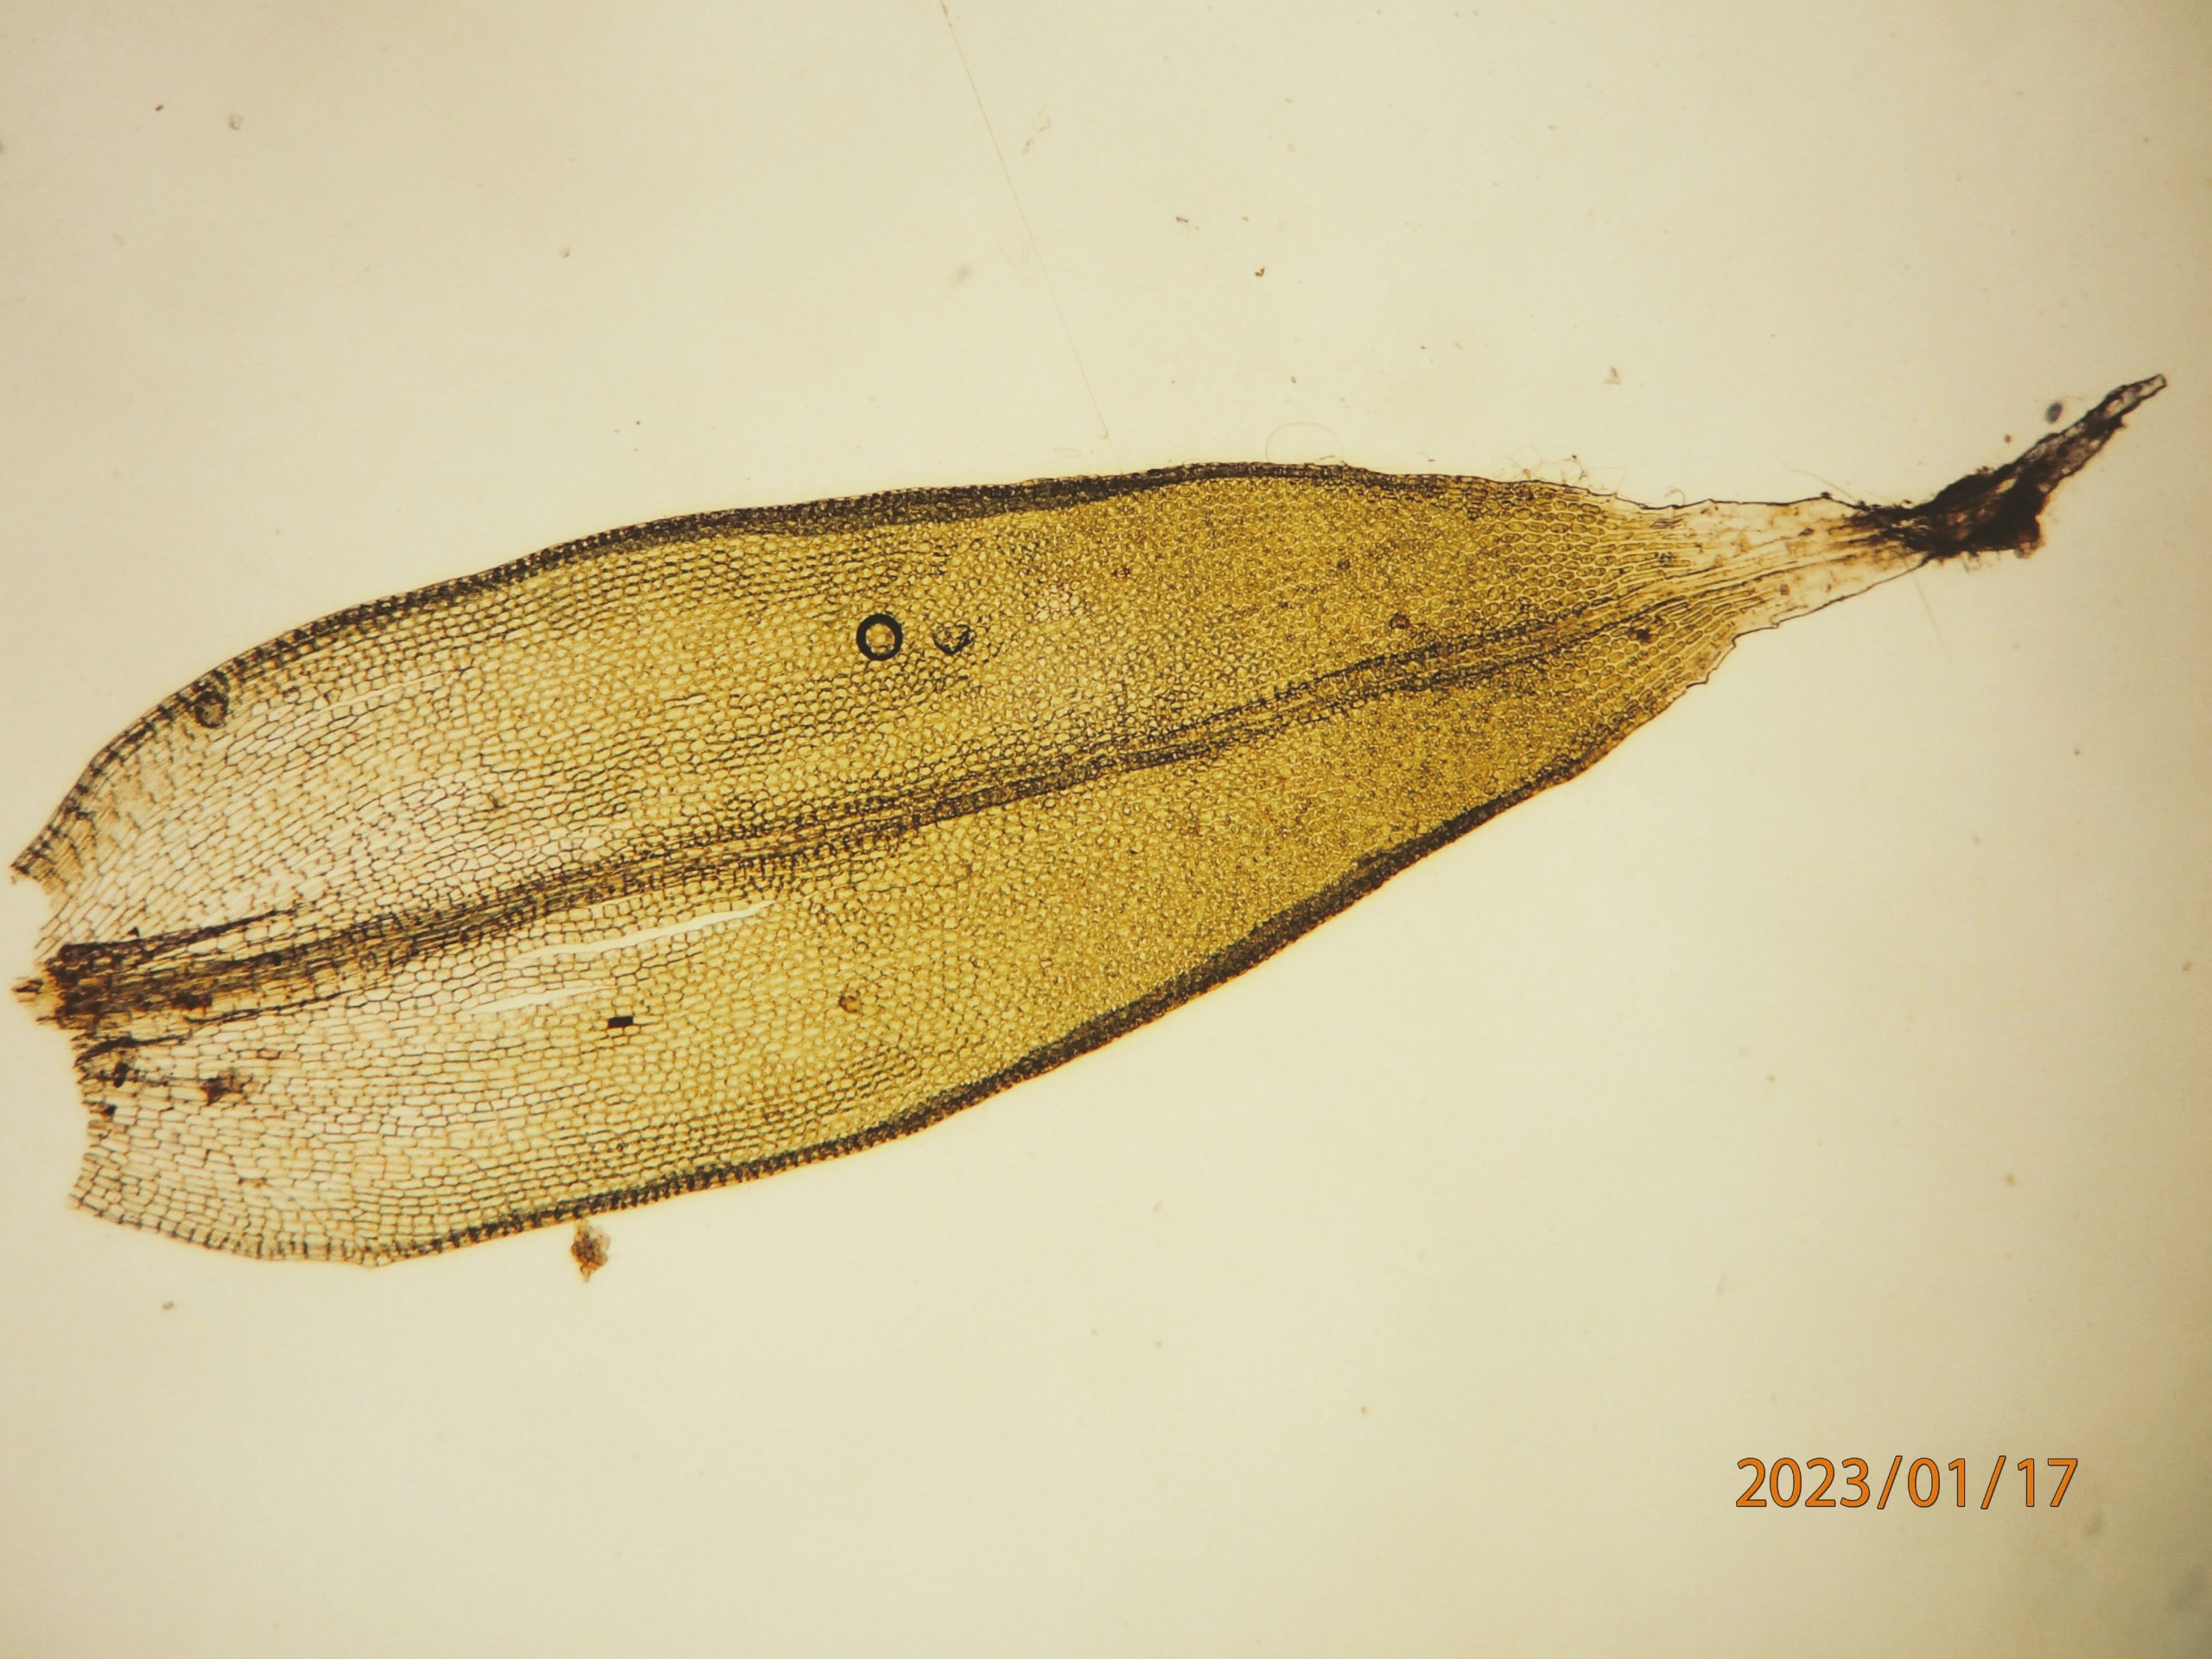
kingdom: Plantae
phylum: Bryophyta
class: Bryopsida
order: Orthotrichales
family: Orthotrichaceae
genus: Orthotrichum
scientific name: Orthotrichum diaphanum
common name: Hårspidset furehætte
